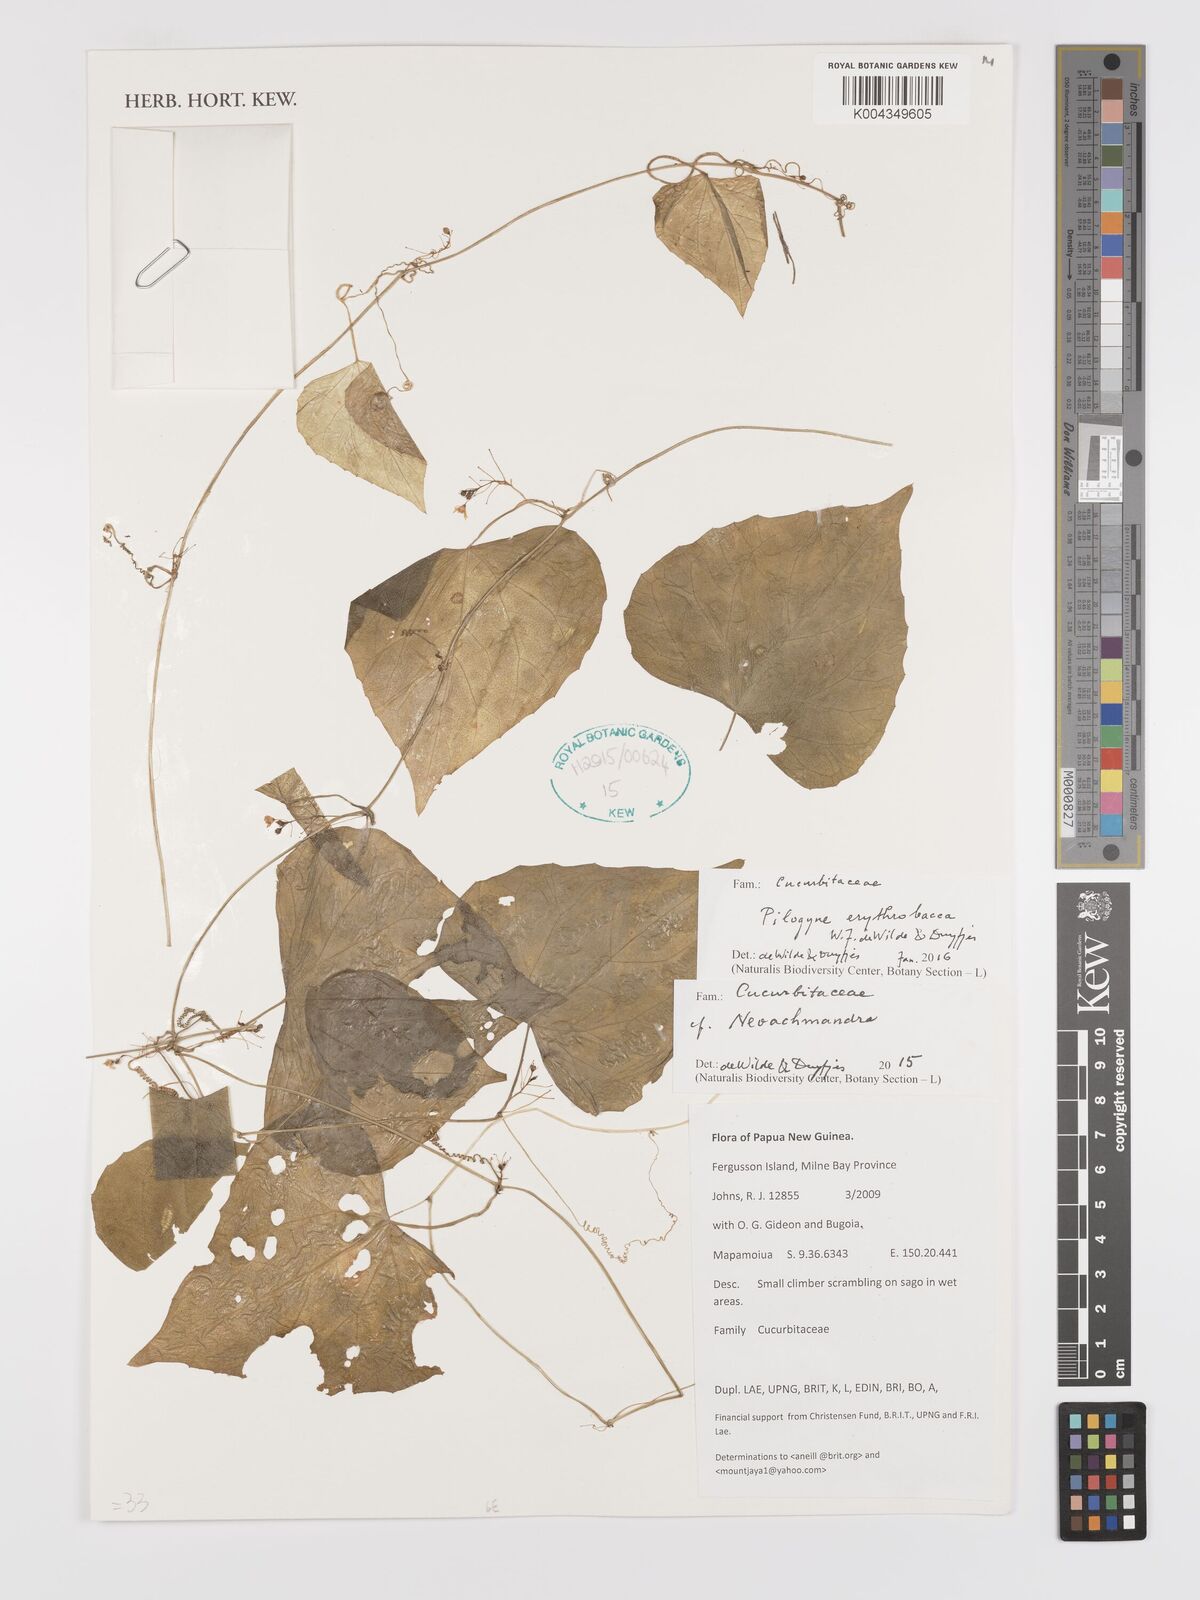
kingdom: Plantae
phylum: Tracheophyta
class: Magnoliopsida
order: Cucurbitales
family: Cucurbitaceae
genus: Zehneria
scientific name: Zehneria erythrobacca
